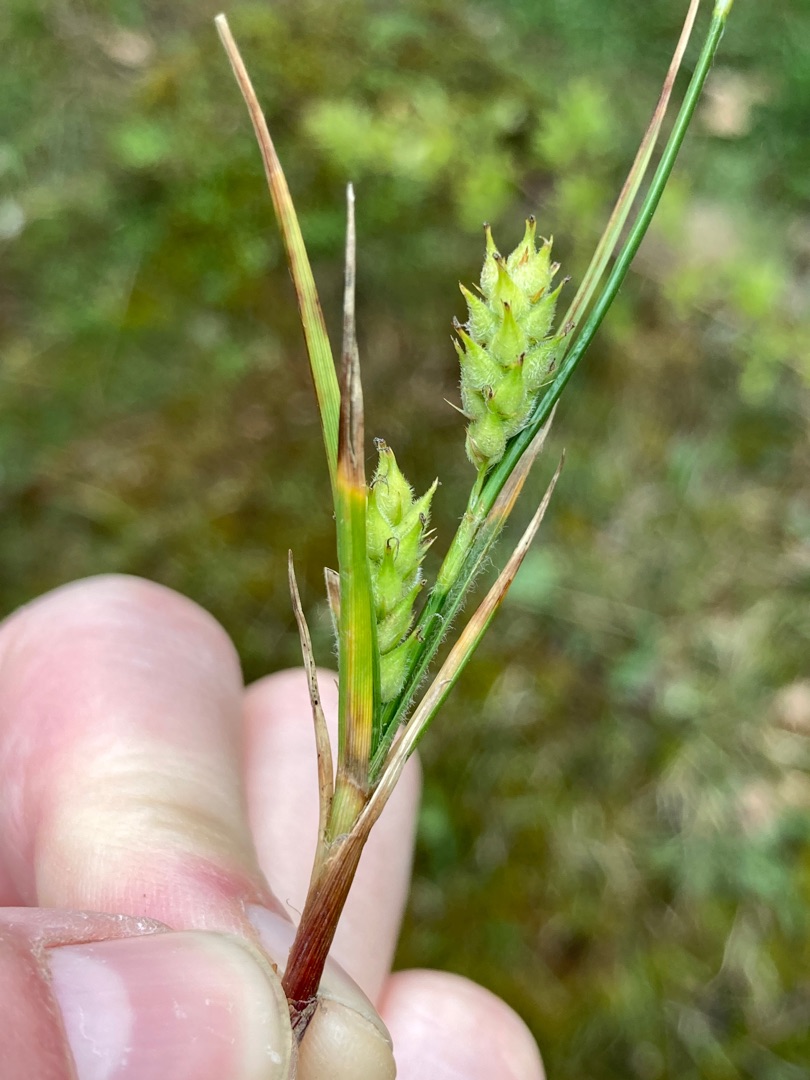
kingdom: Plantae
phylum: Tracheophyta
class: Liliopsida
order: Poales
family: Cyperaceae
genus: Carex
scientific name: Carex hirta
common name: Håret star
